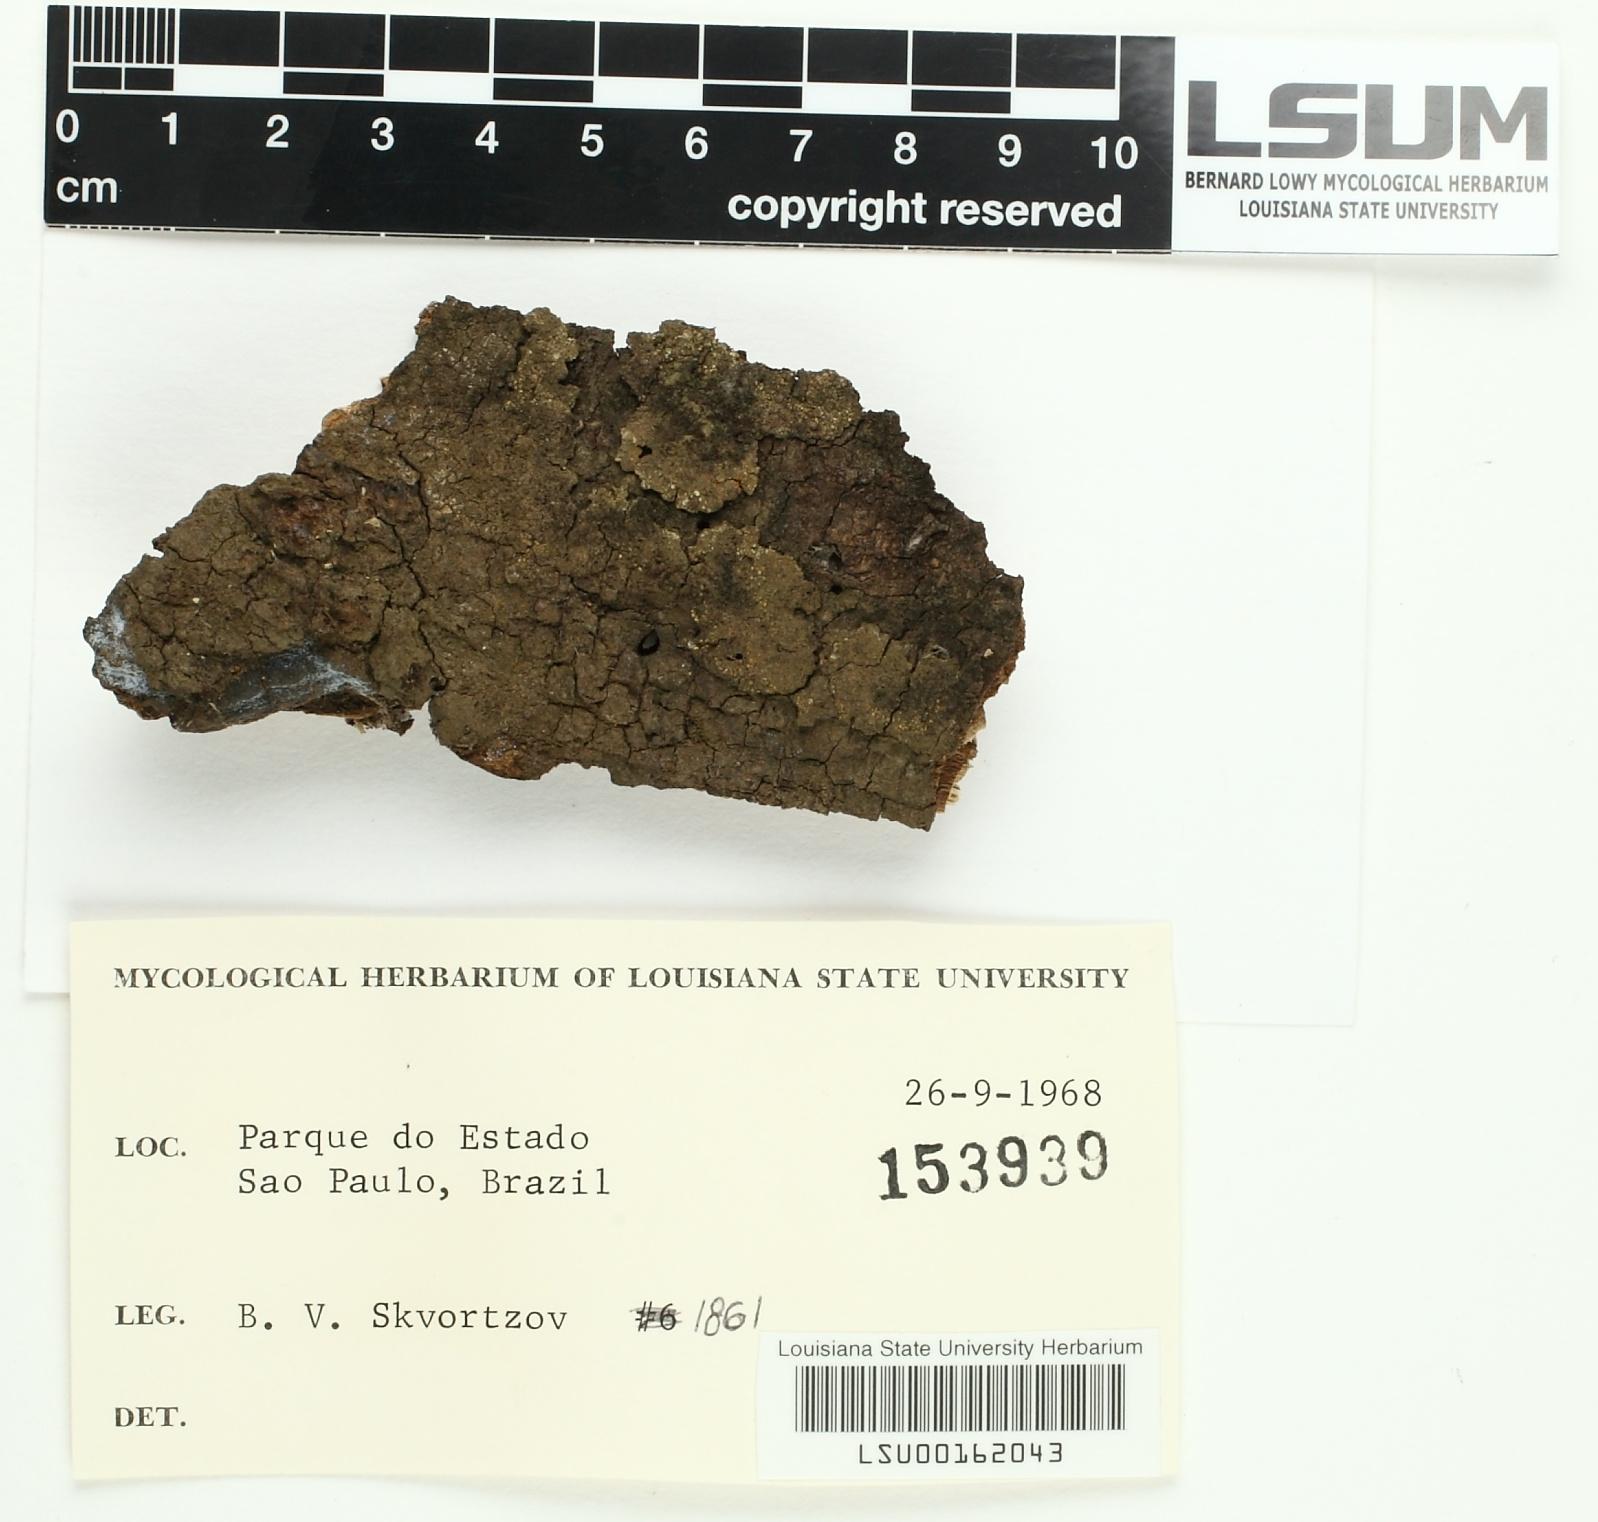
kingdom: Fungi
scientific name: Fungi
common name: Fungi
